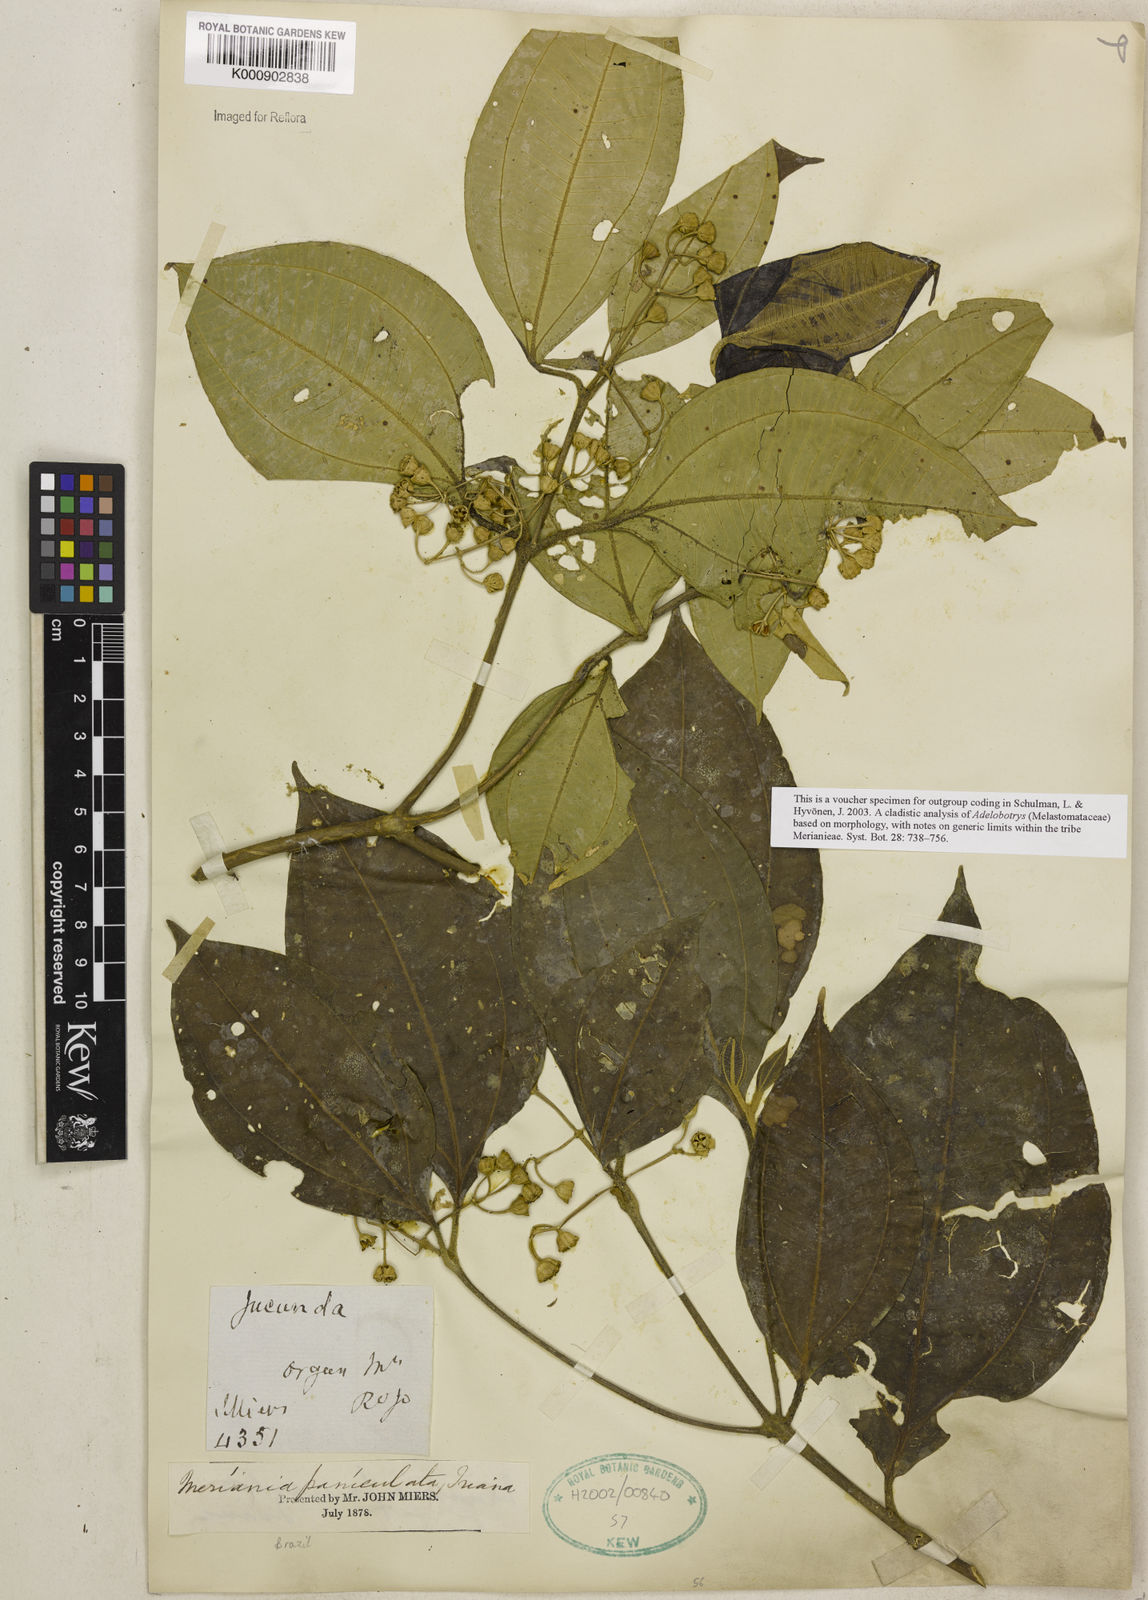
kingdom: Plantae
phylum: Tracheophyta
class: Magnoliopsida
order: Myrtales
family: Melastomataceae
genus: Meriania
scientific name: Meriania paniculata
